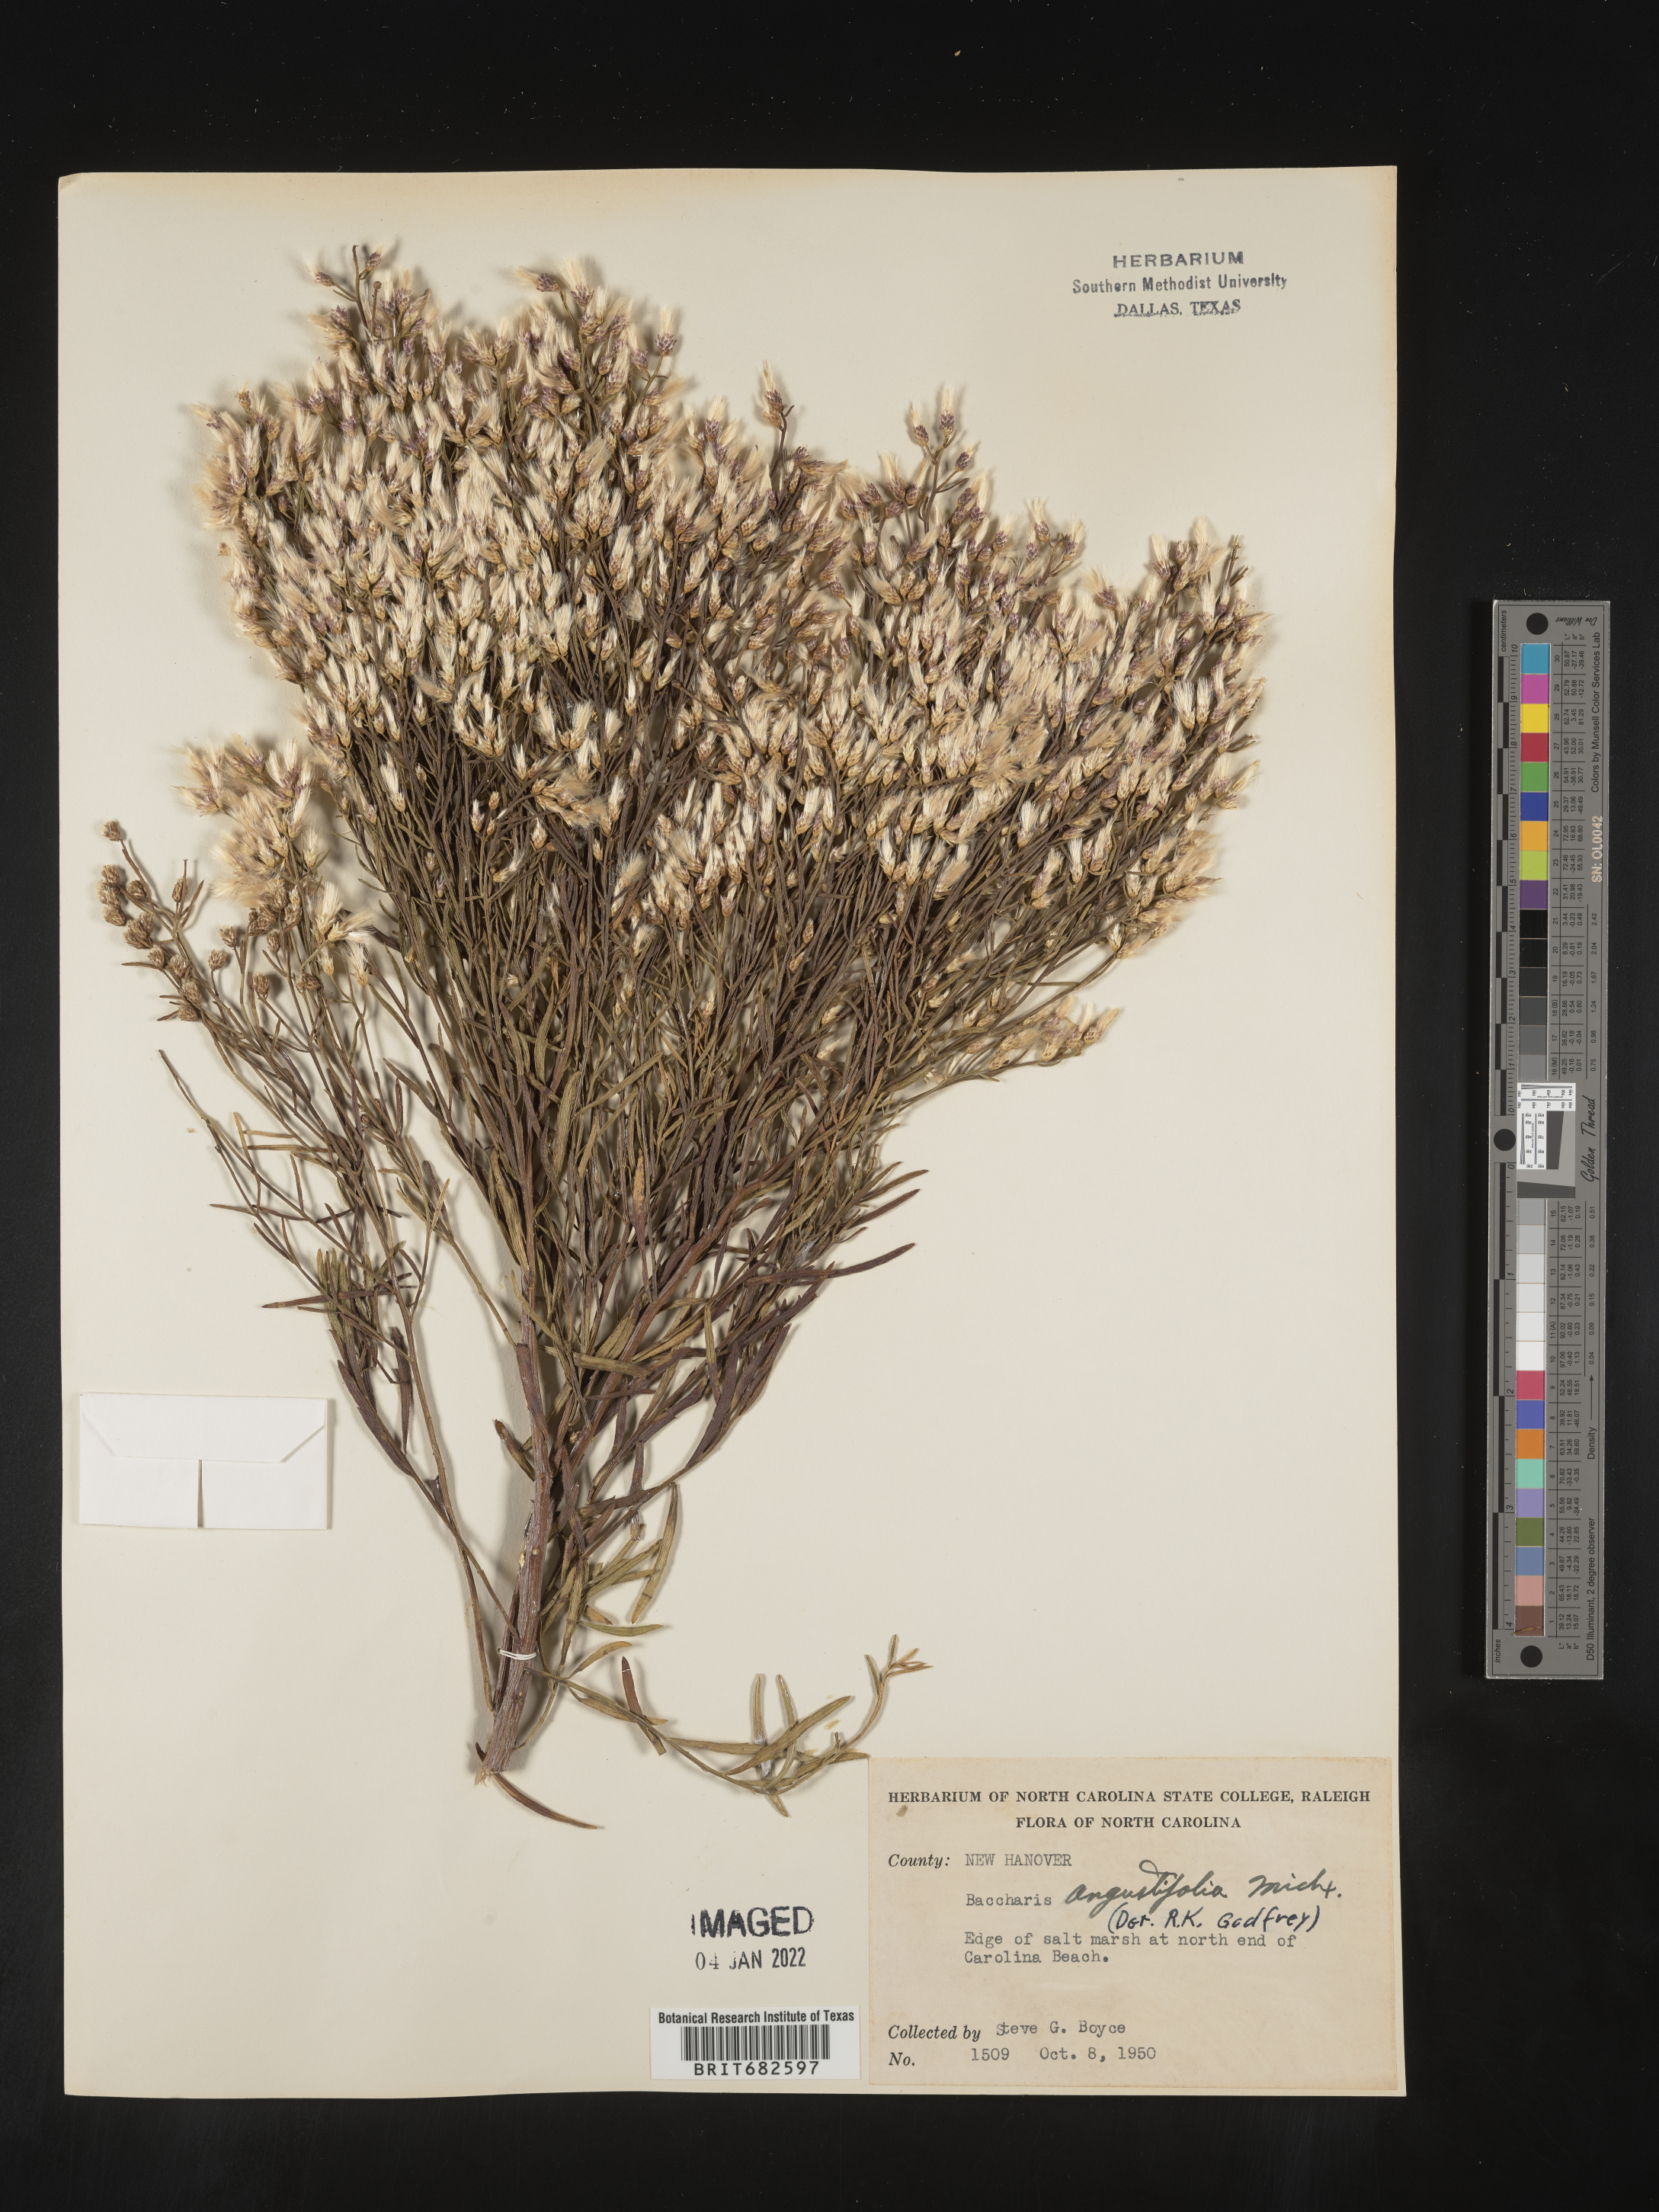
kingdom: Plantae
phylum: Tracheophyta
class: Magnoliopsida
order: Asterales
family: Asteraceae
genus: Baccharis
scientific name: Baccharis angustifolia
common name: Narrow-leaf baccharis
